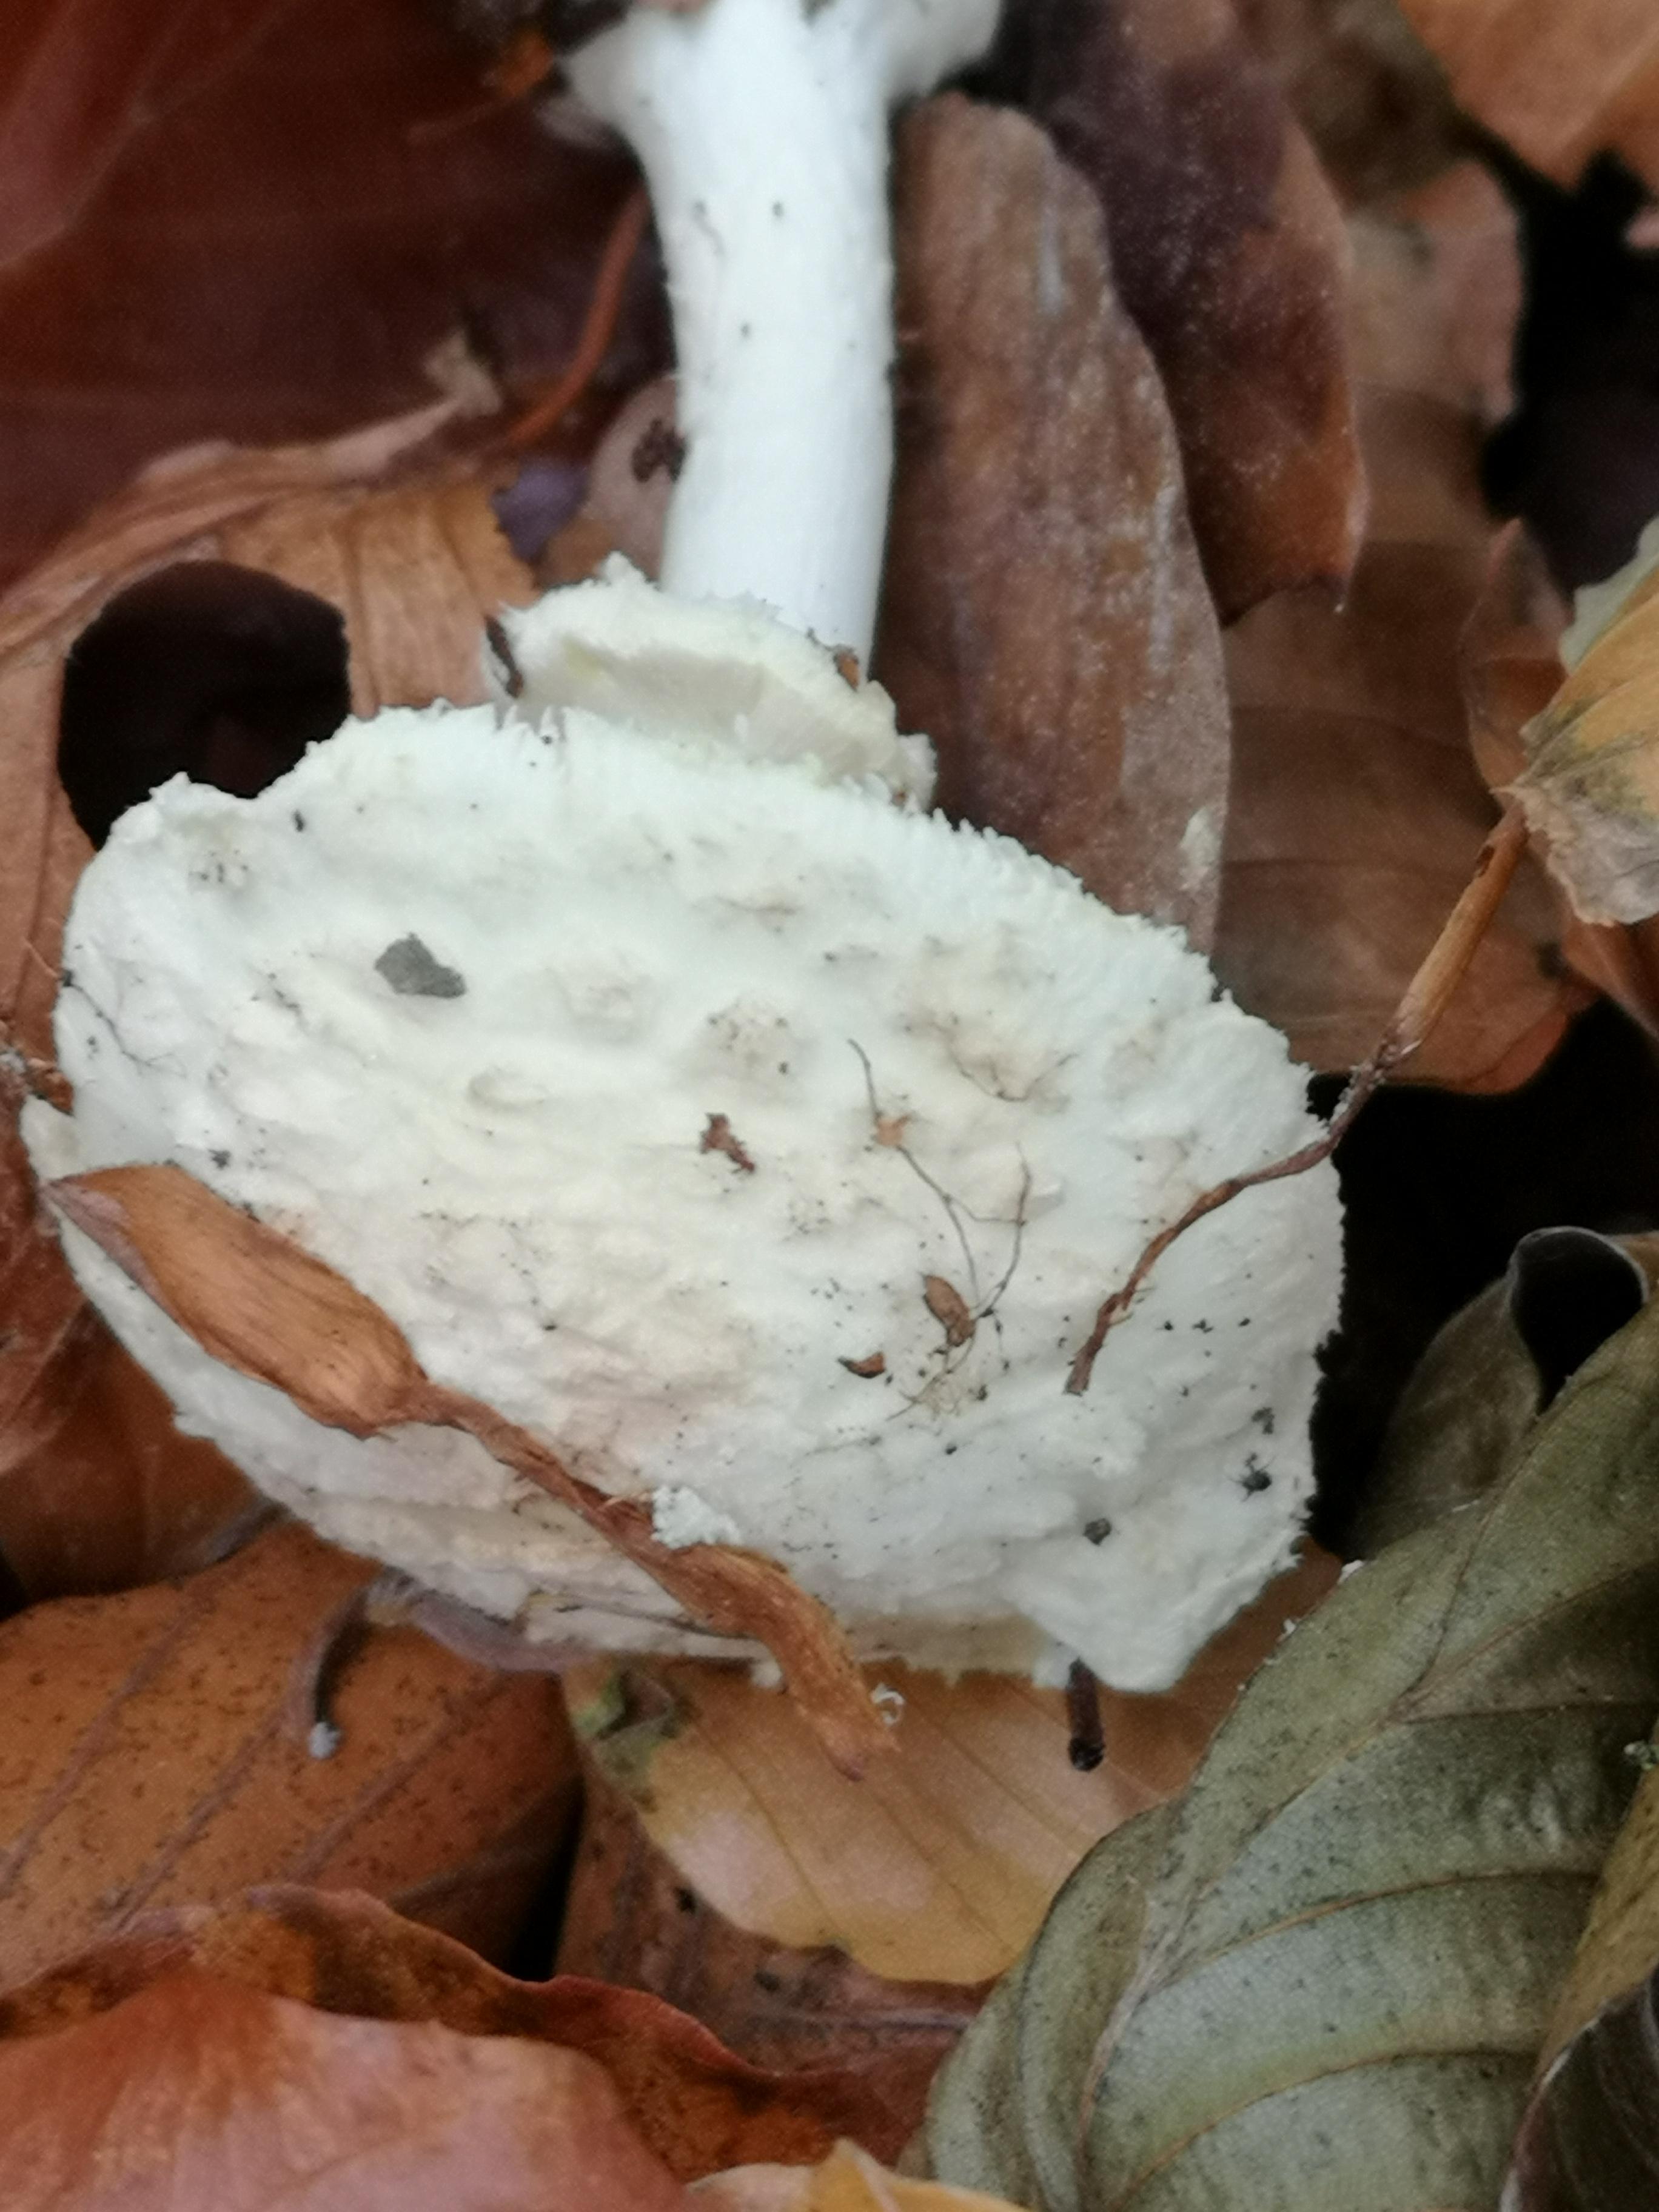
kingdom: Fungi
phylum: Basidiomycota
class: Agaricomycetes
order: Agaricales
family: Amanitaceae
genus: Amanita
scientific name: Amanita citrina
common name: kugleknoldet fluesvamp
